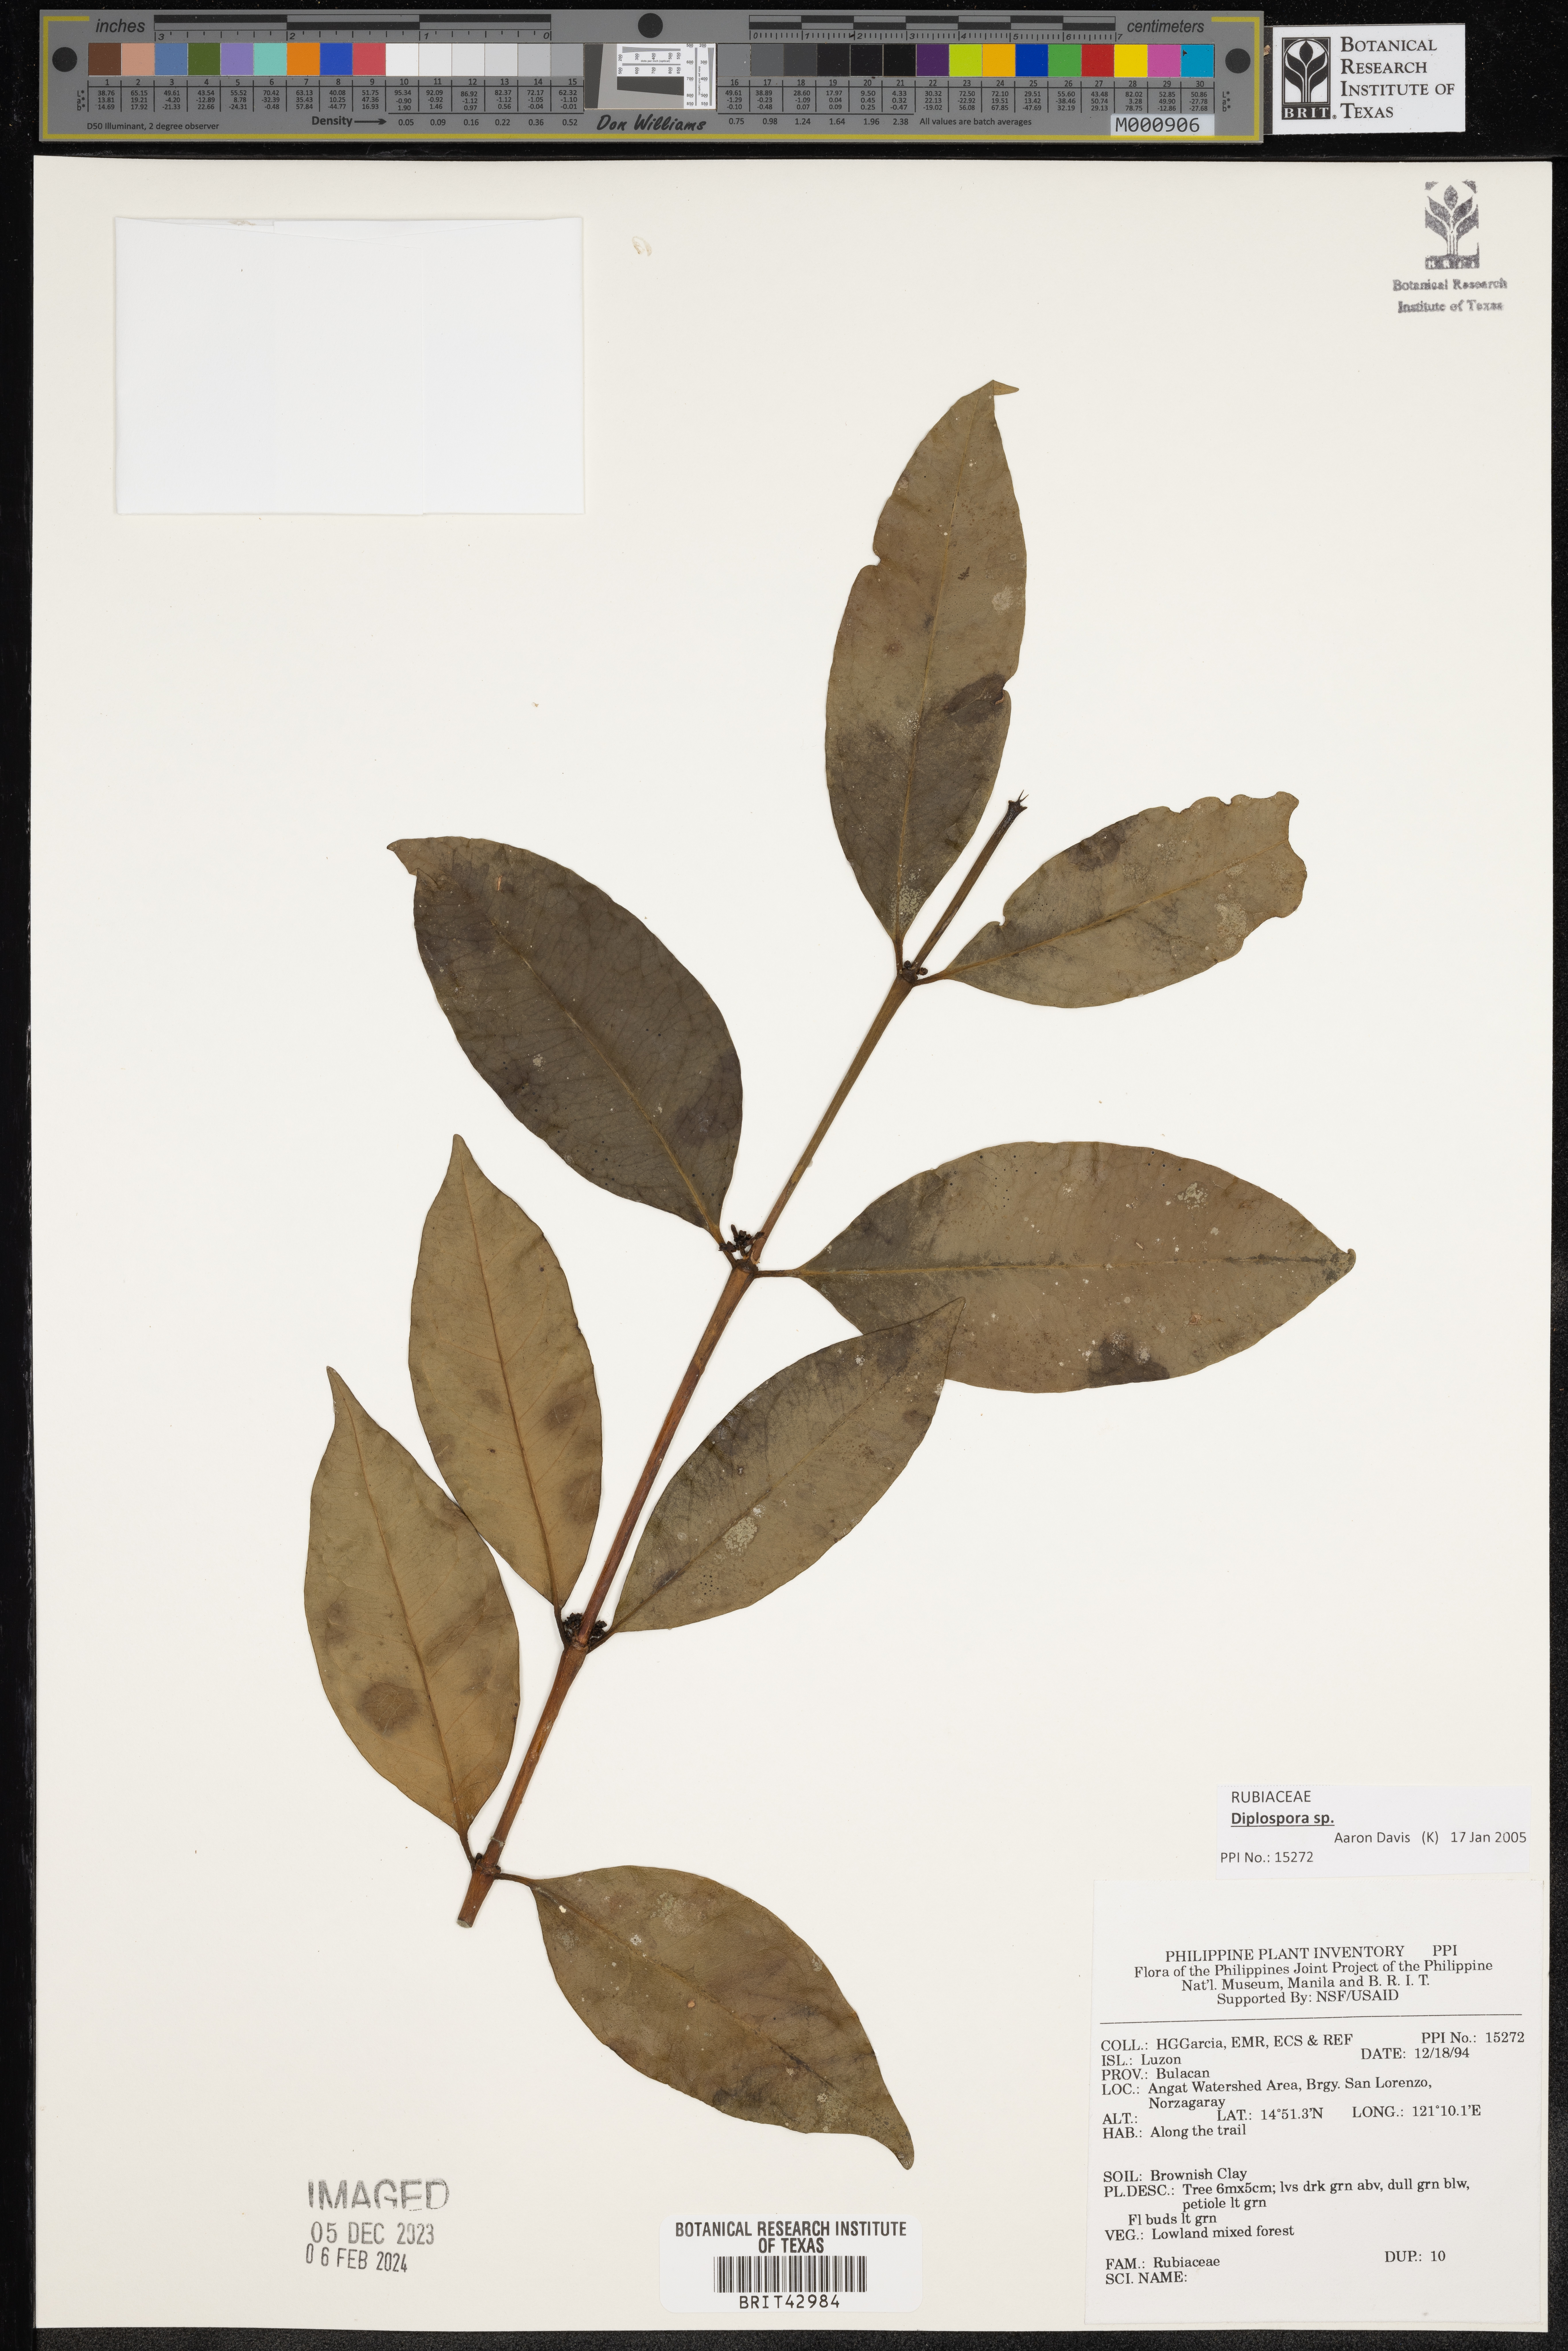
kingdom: Plantae
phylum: Tracheophyta
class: Magnoliopsida
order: Gentianales
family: Rubiaceae
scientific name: Rubiaceae
